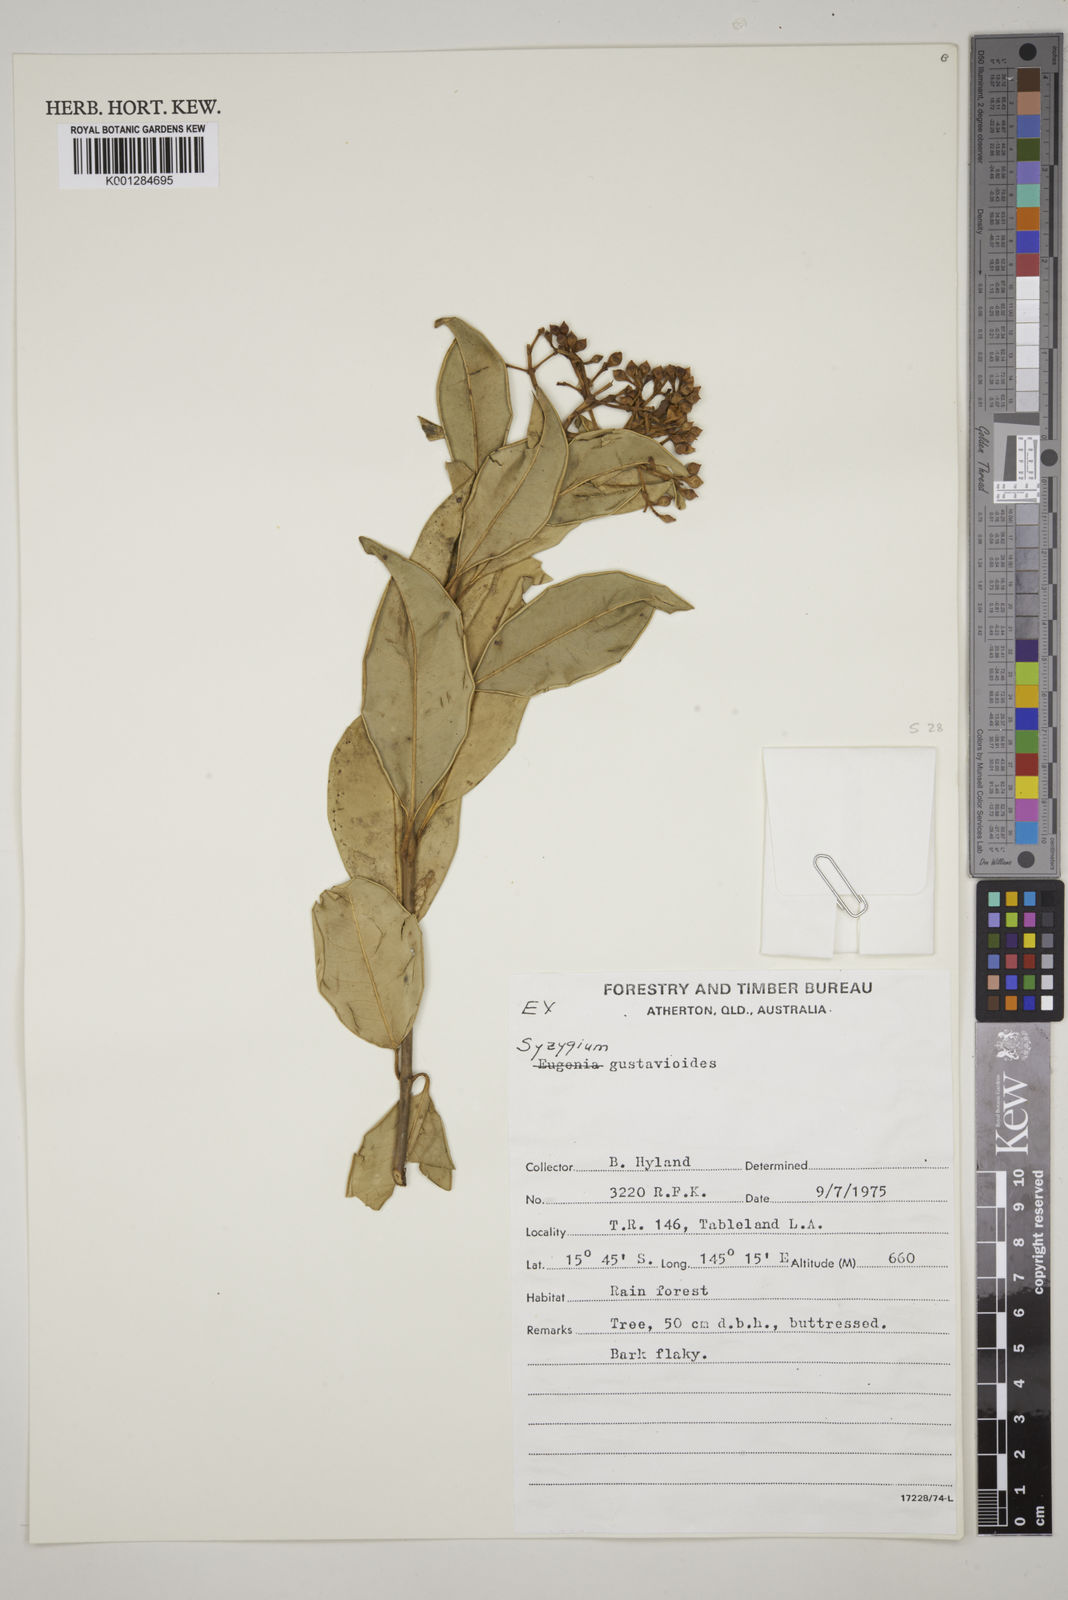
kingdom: Plantae
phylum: Tracheophyta
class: Magnoliopsida
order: Myrtales
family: Myrtaceae
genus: Syzygium
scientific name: Syzygium gustavioides
